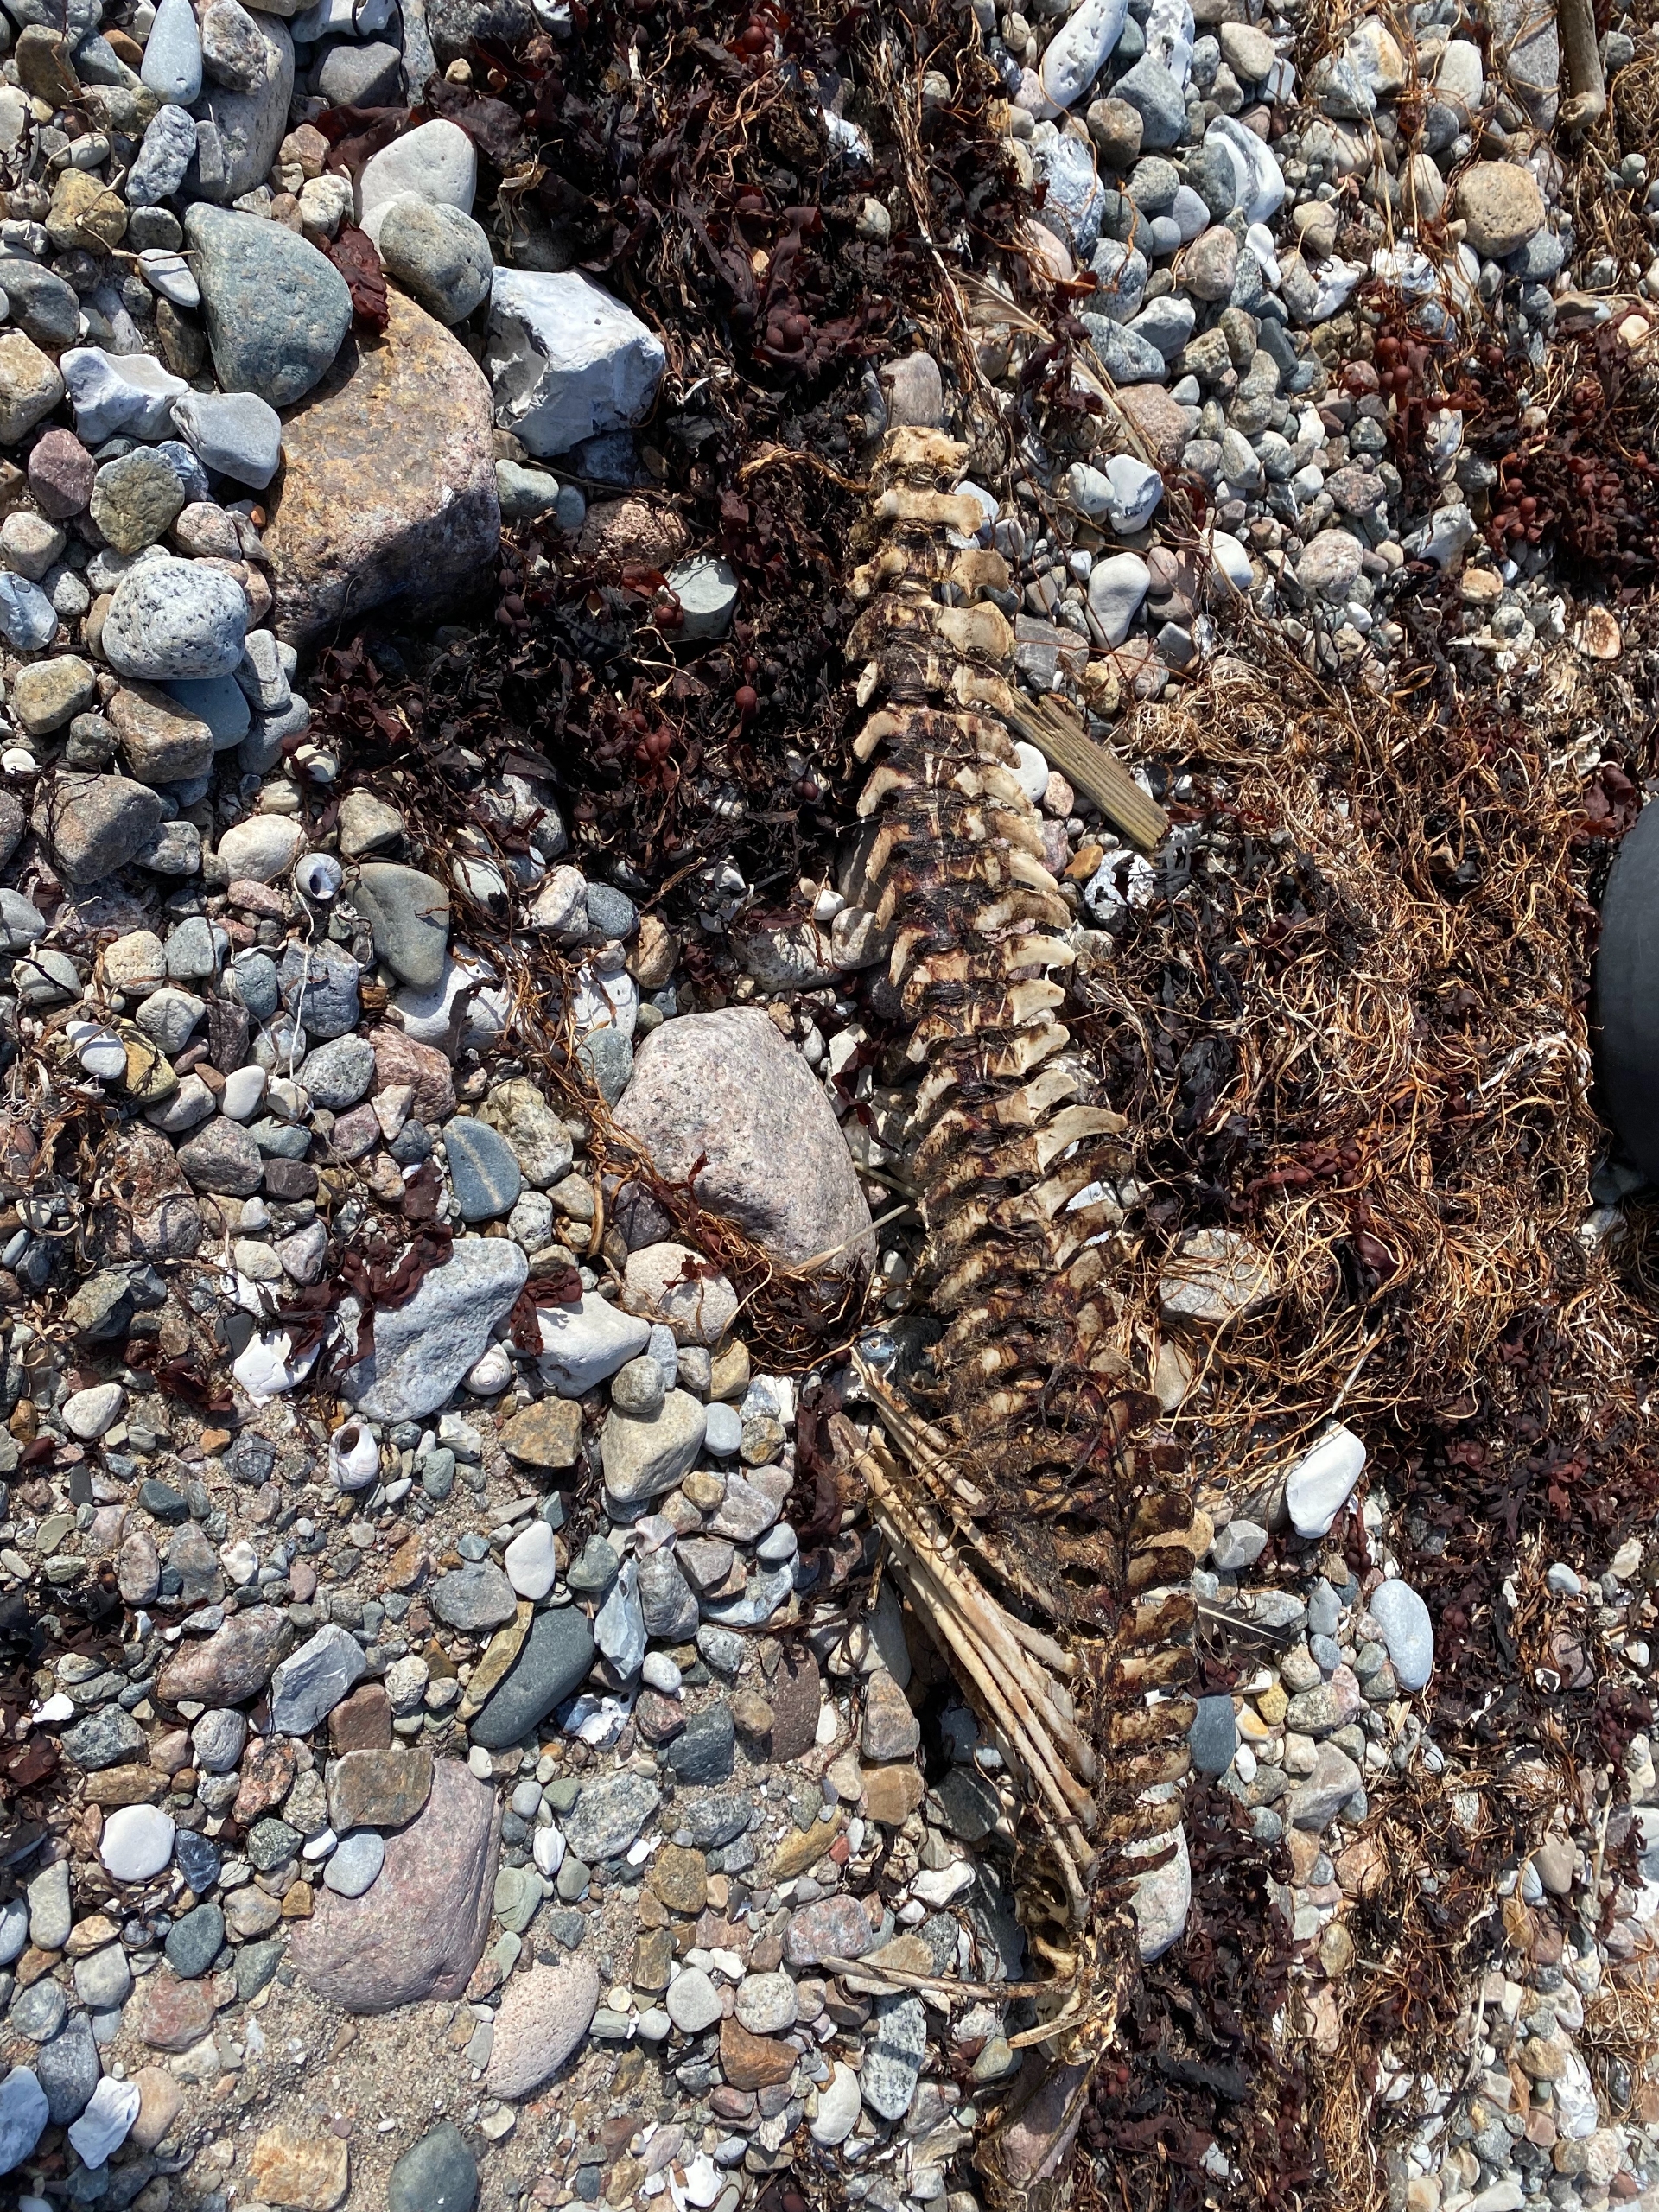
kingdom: Animalia
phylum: Chordata
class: Mammalia
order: Cetacea
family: Phocoenidae
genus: Phocoena
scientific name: Phocoena phocoena
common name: Marsvin
